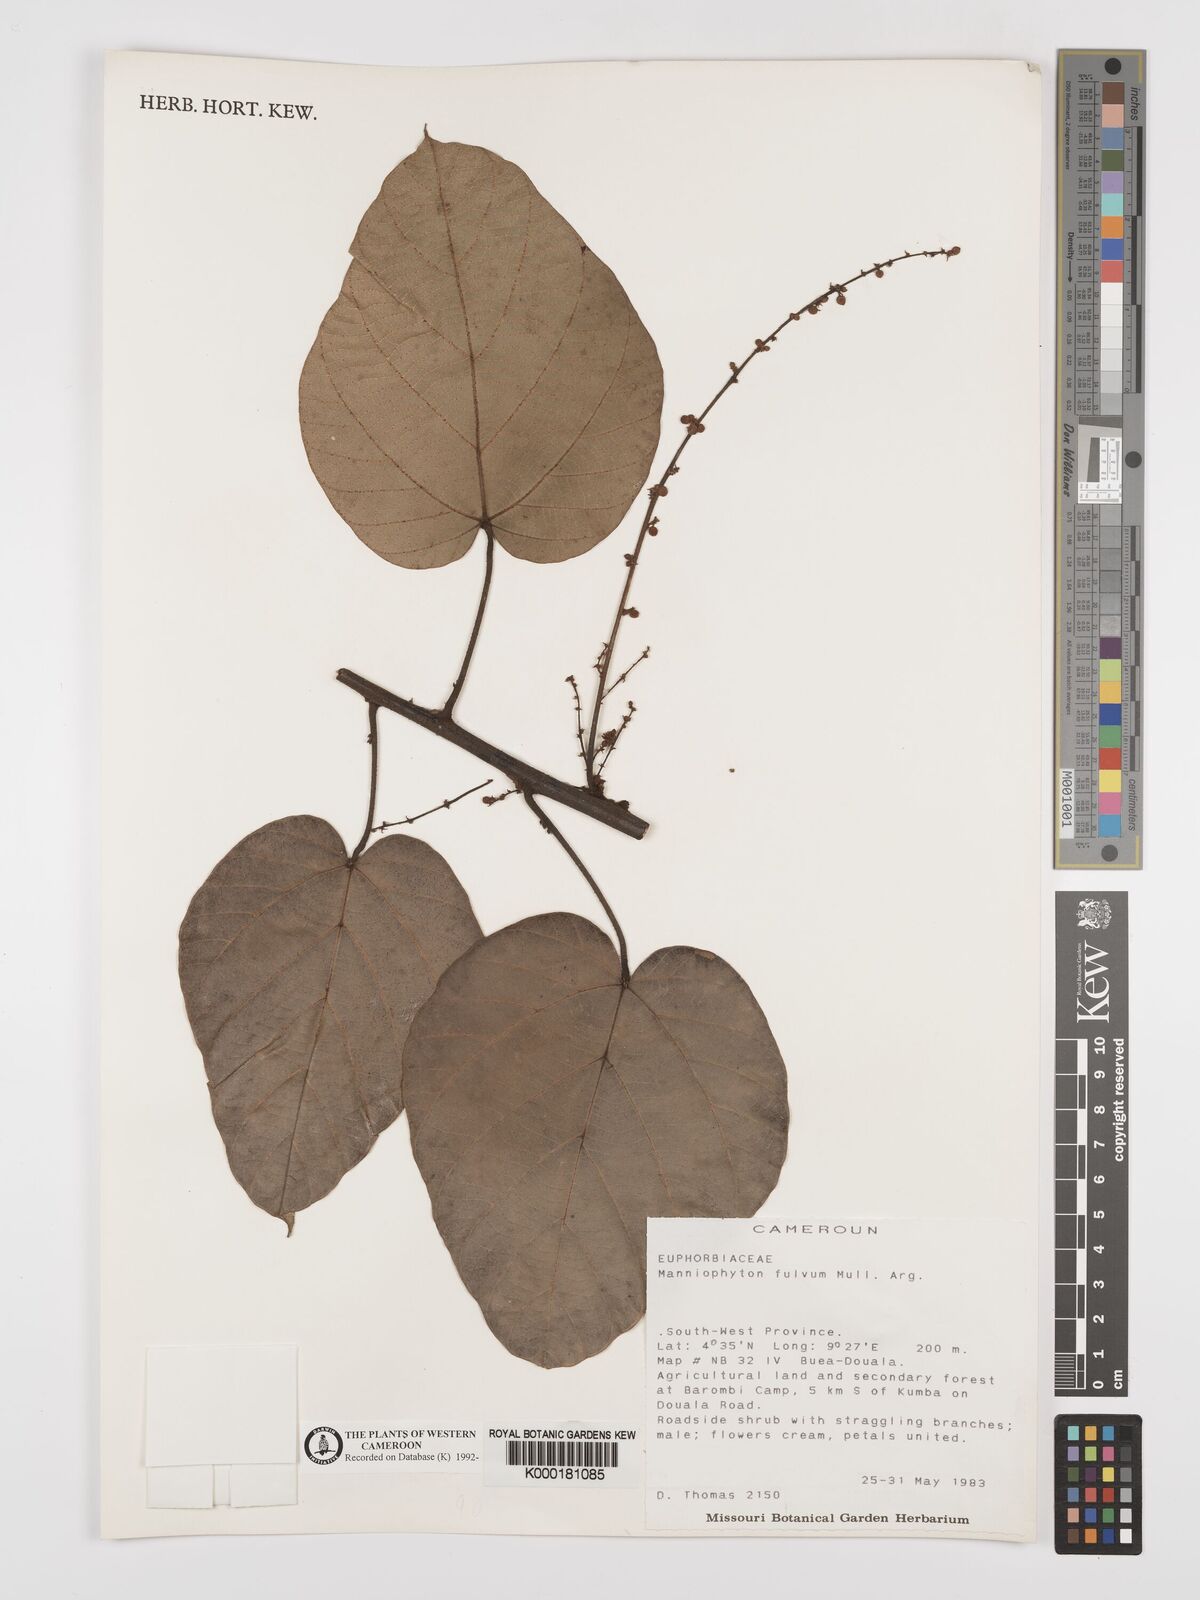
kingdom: Plantae
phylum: Tracheophyta
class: Magnoliopsida
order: Malpighiales
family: Euphorbiaceae
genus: Manniophyton
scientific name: Manniophyton
